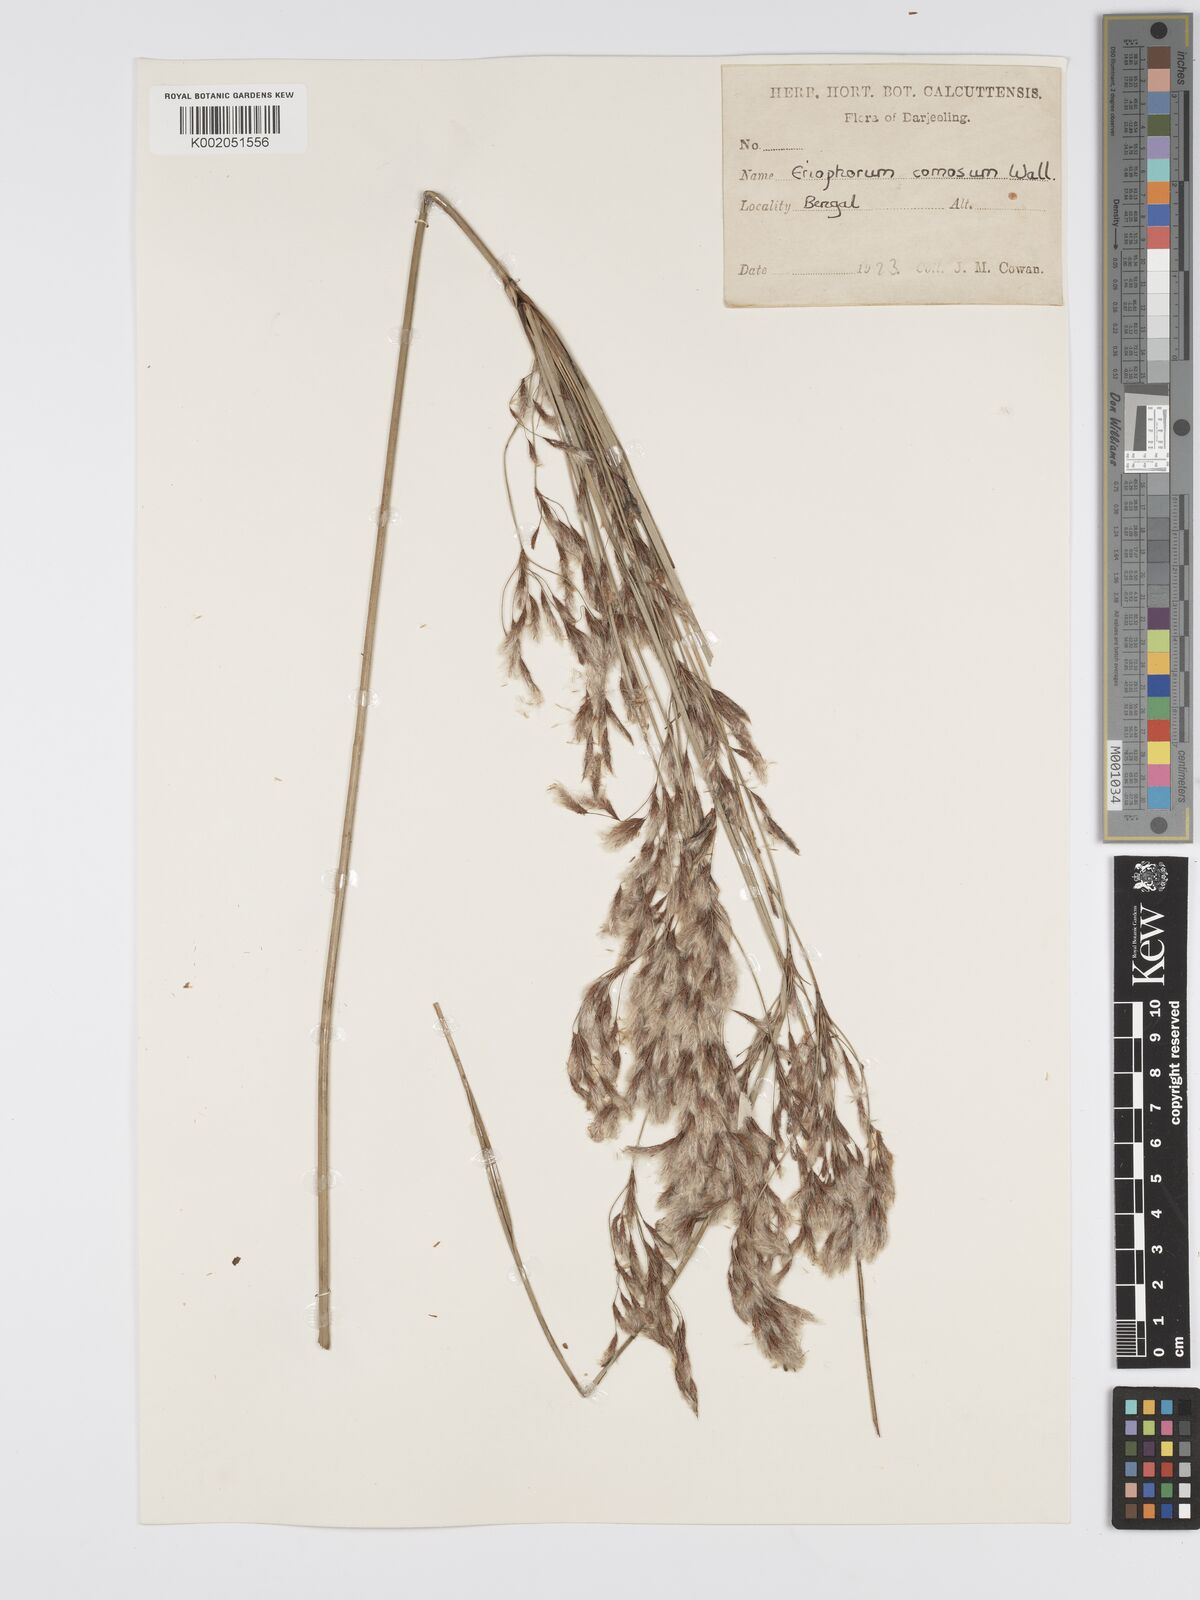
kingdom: Plantae
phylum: Tracheophyta
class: Liliopsida
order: Poales
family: Cyperaceae
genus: Erioscirpus
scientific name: Erioscirpus comosus
